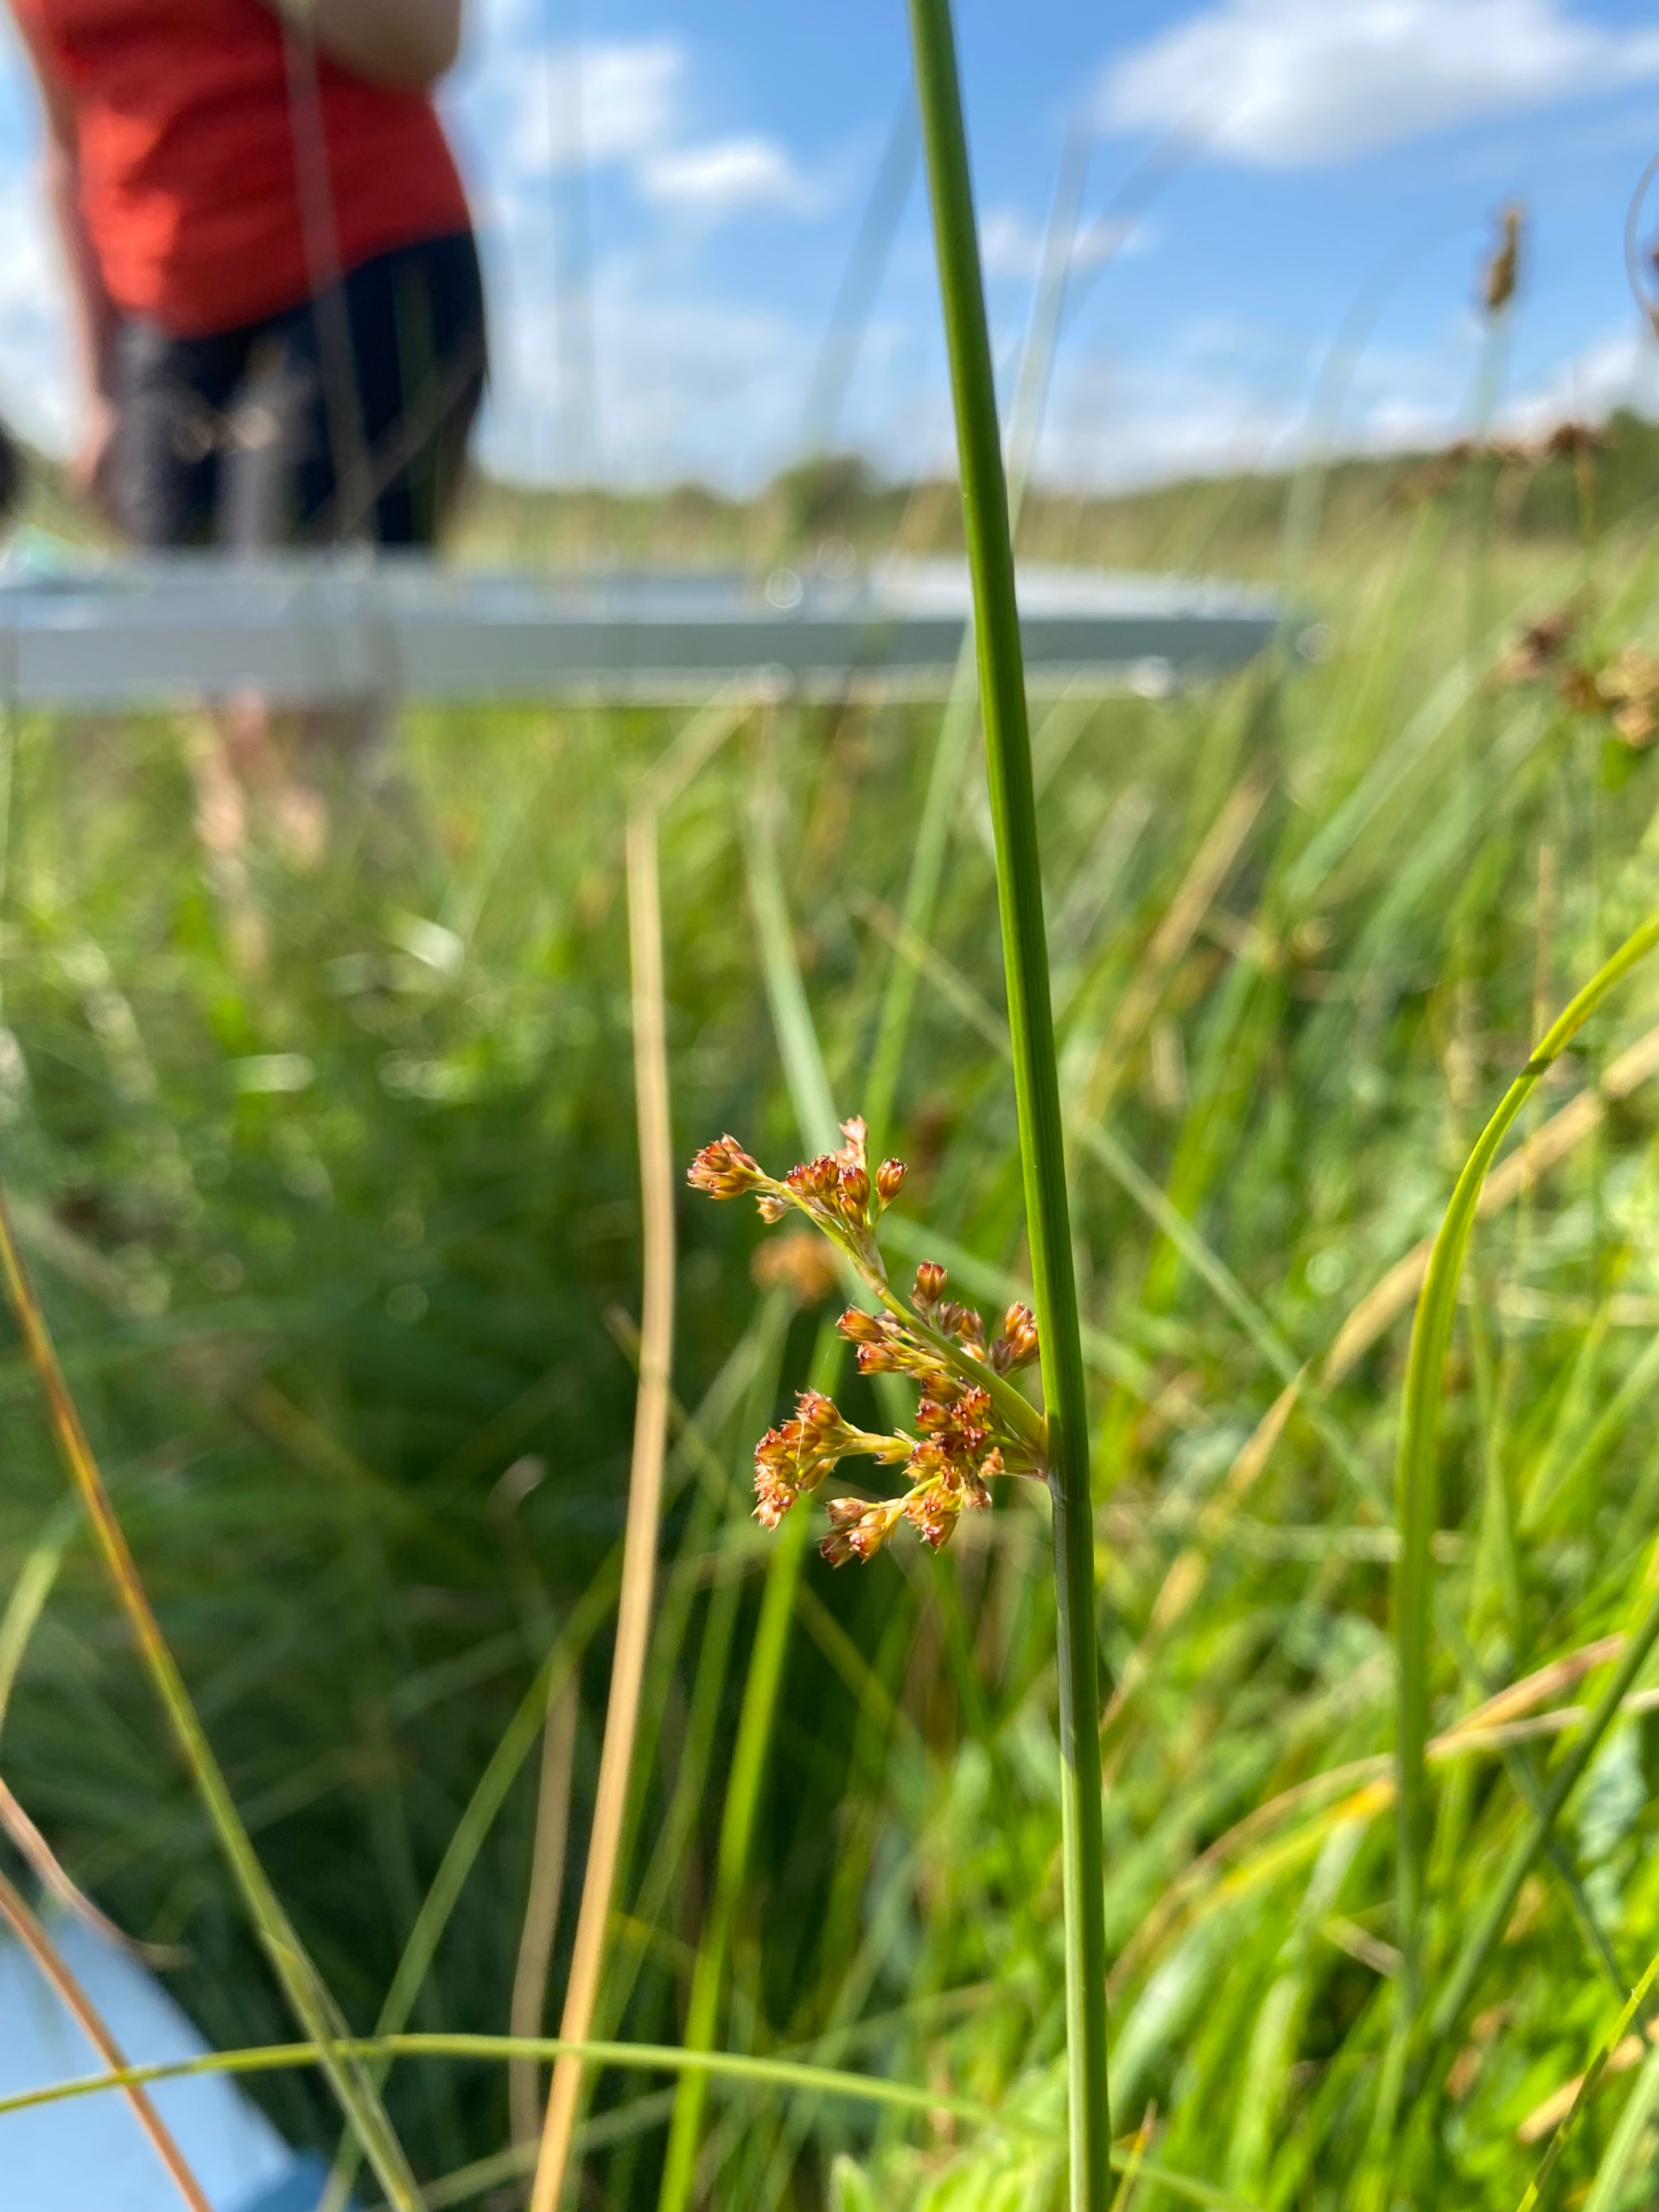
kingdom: Plantae
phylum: Tracheophyta
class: Liliopsida
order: Poales
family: Juncaceae
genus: Juncus
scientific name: Juncus effusus
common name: Lyse-siv
